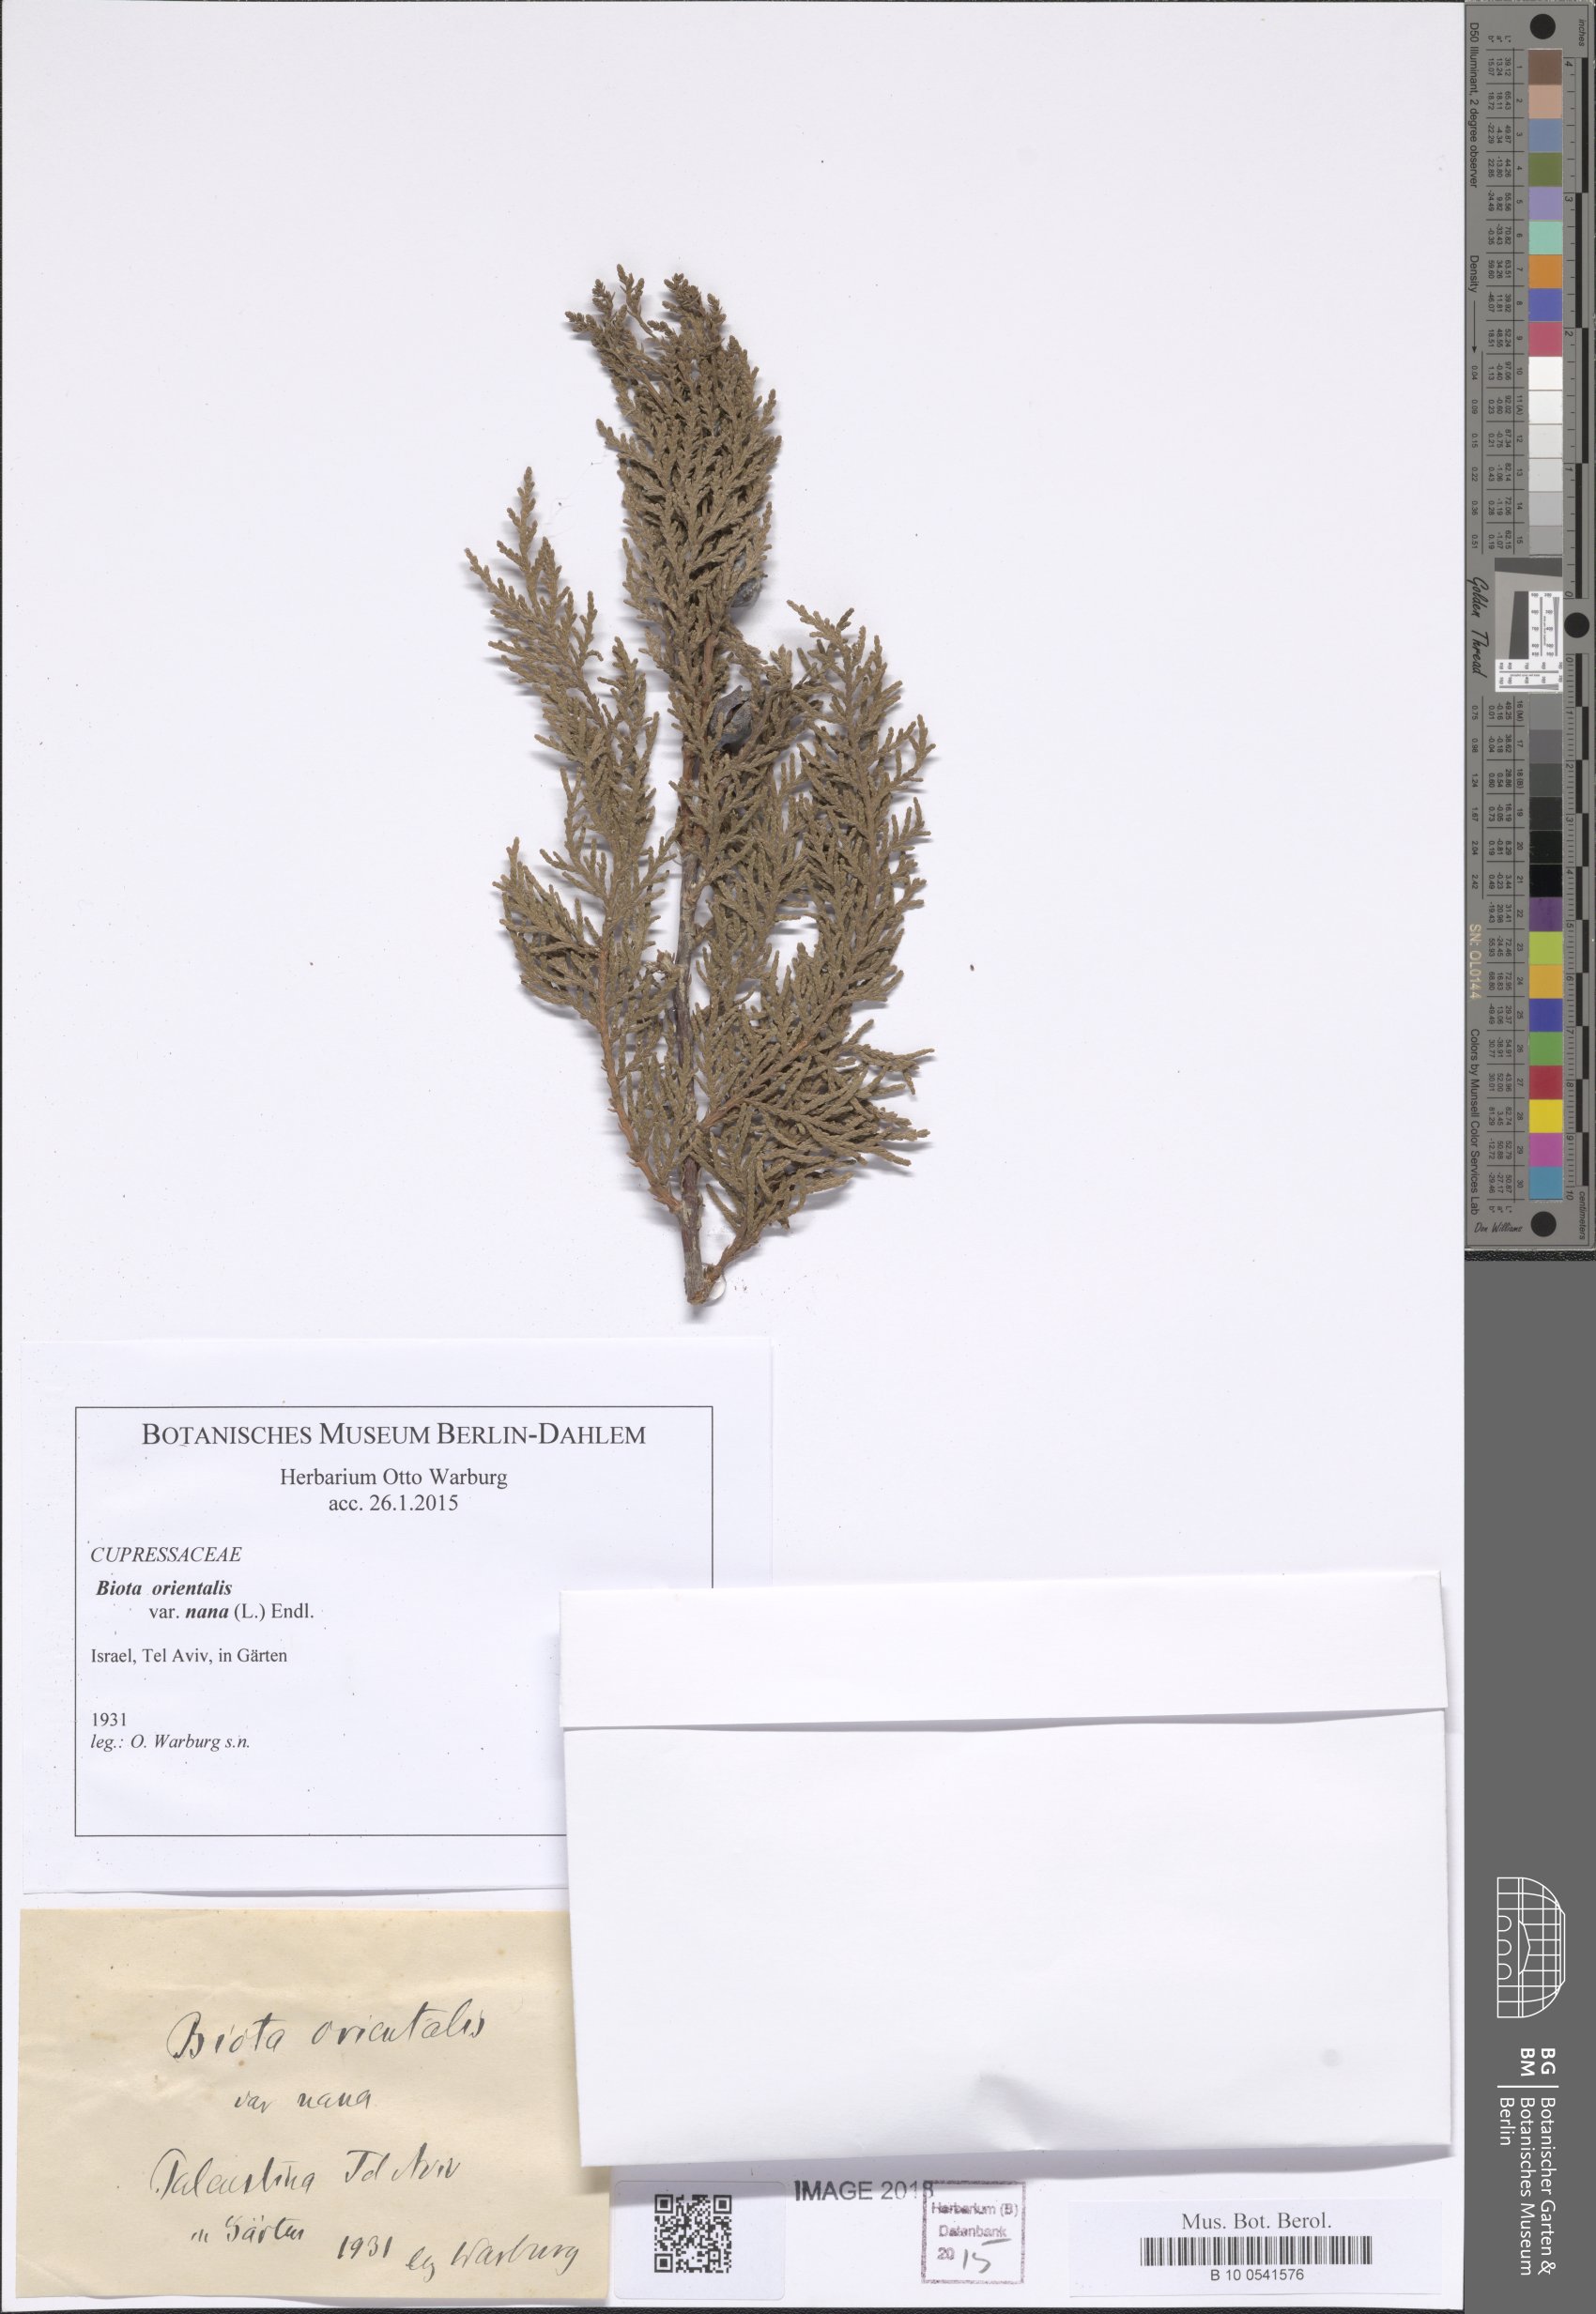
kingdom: Plantae
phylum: Tracheophyta
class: Pinopsida
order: Pinales
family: Cupressaceae
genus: Platycladus
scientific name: Platycladus orientalis
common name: Chinese thuja
